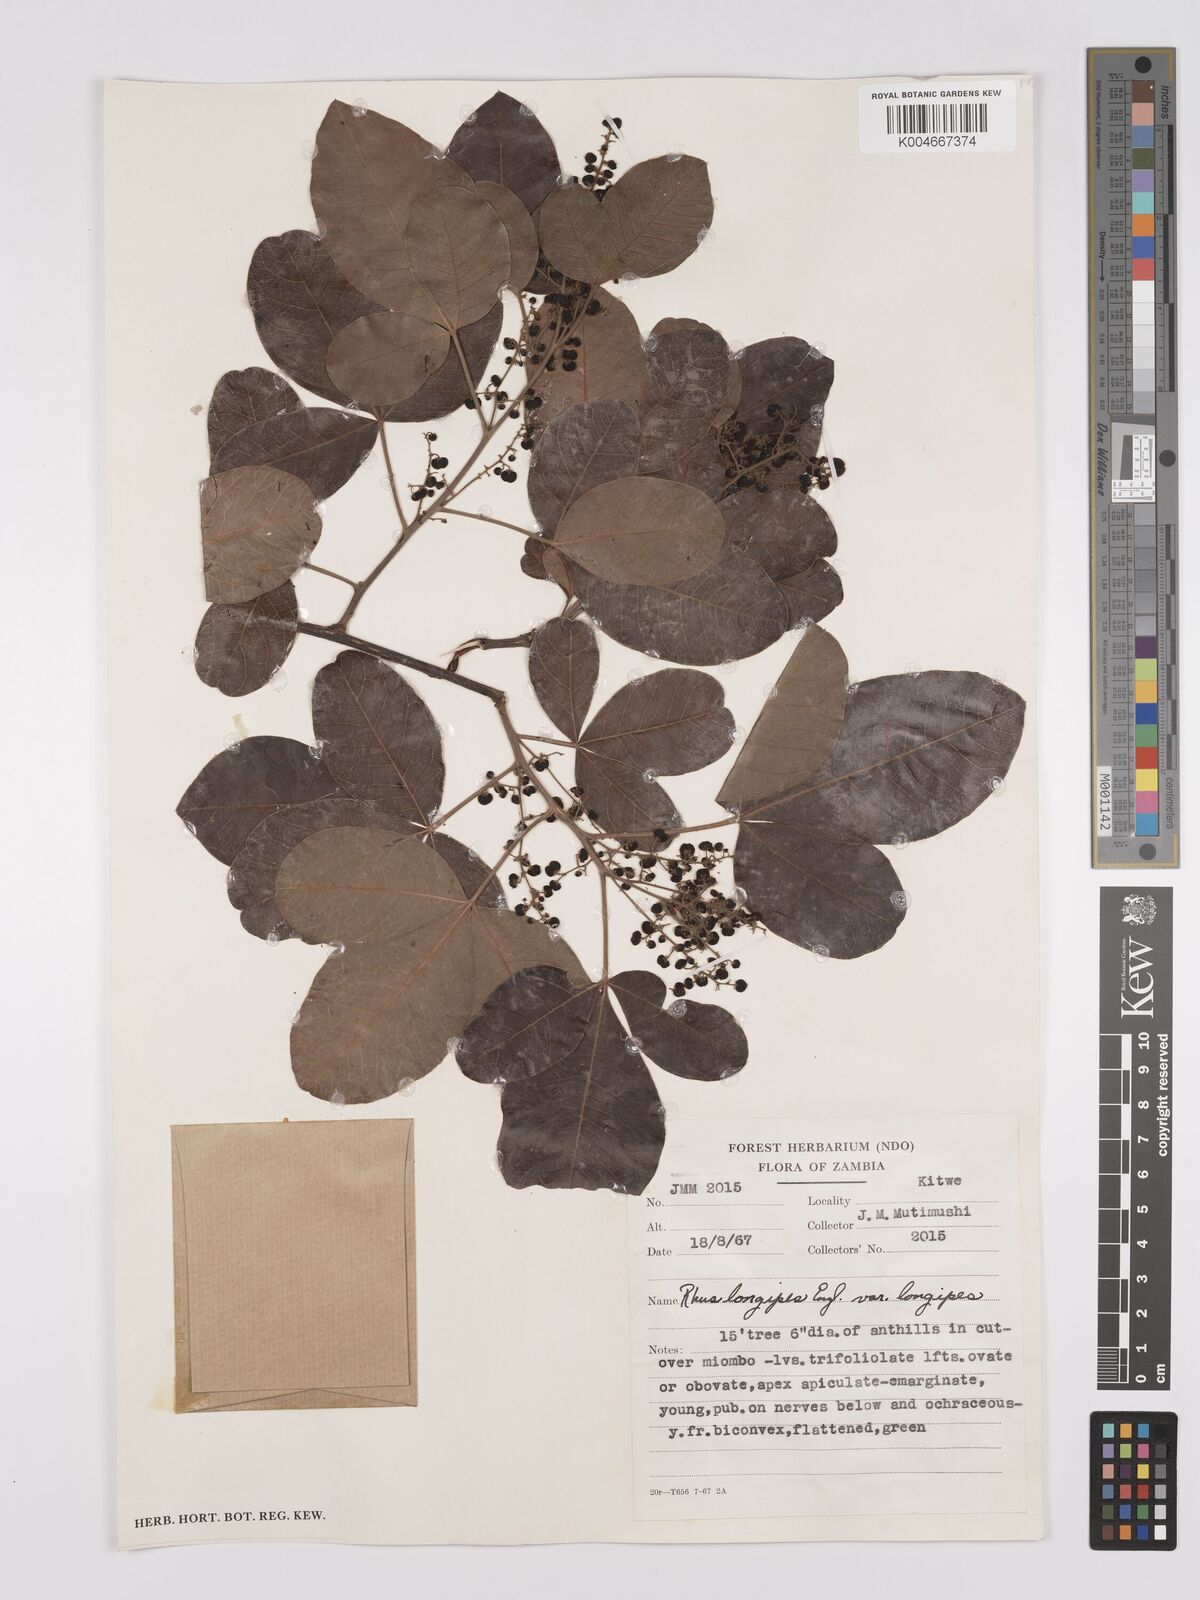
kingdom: Plantae
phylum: Tracheophyta
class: Magnoliopsida
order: Sapindales
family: Anacardiaceae
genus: Searsia
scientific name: Searsia longipes
